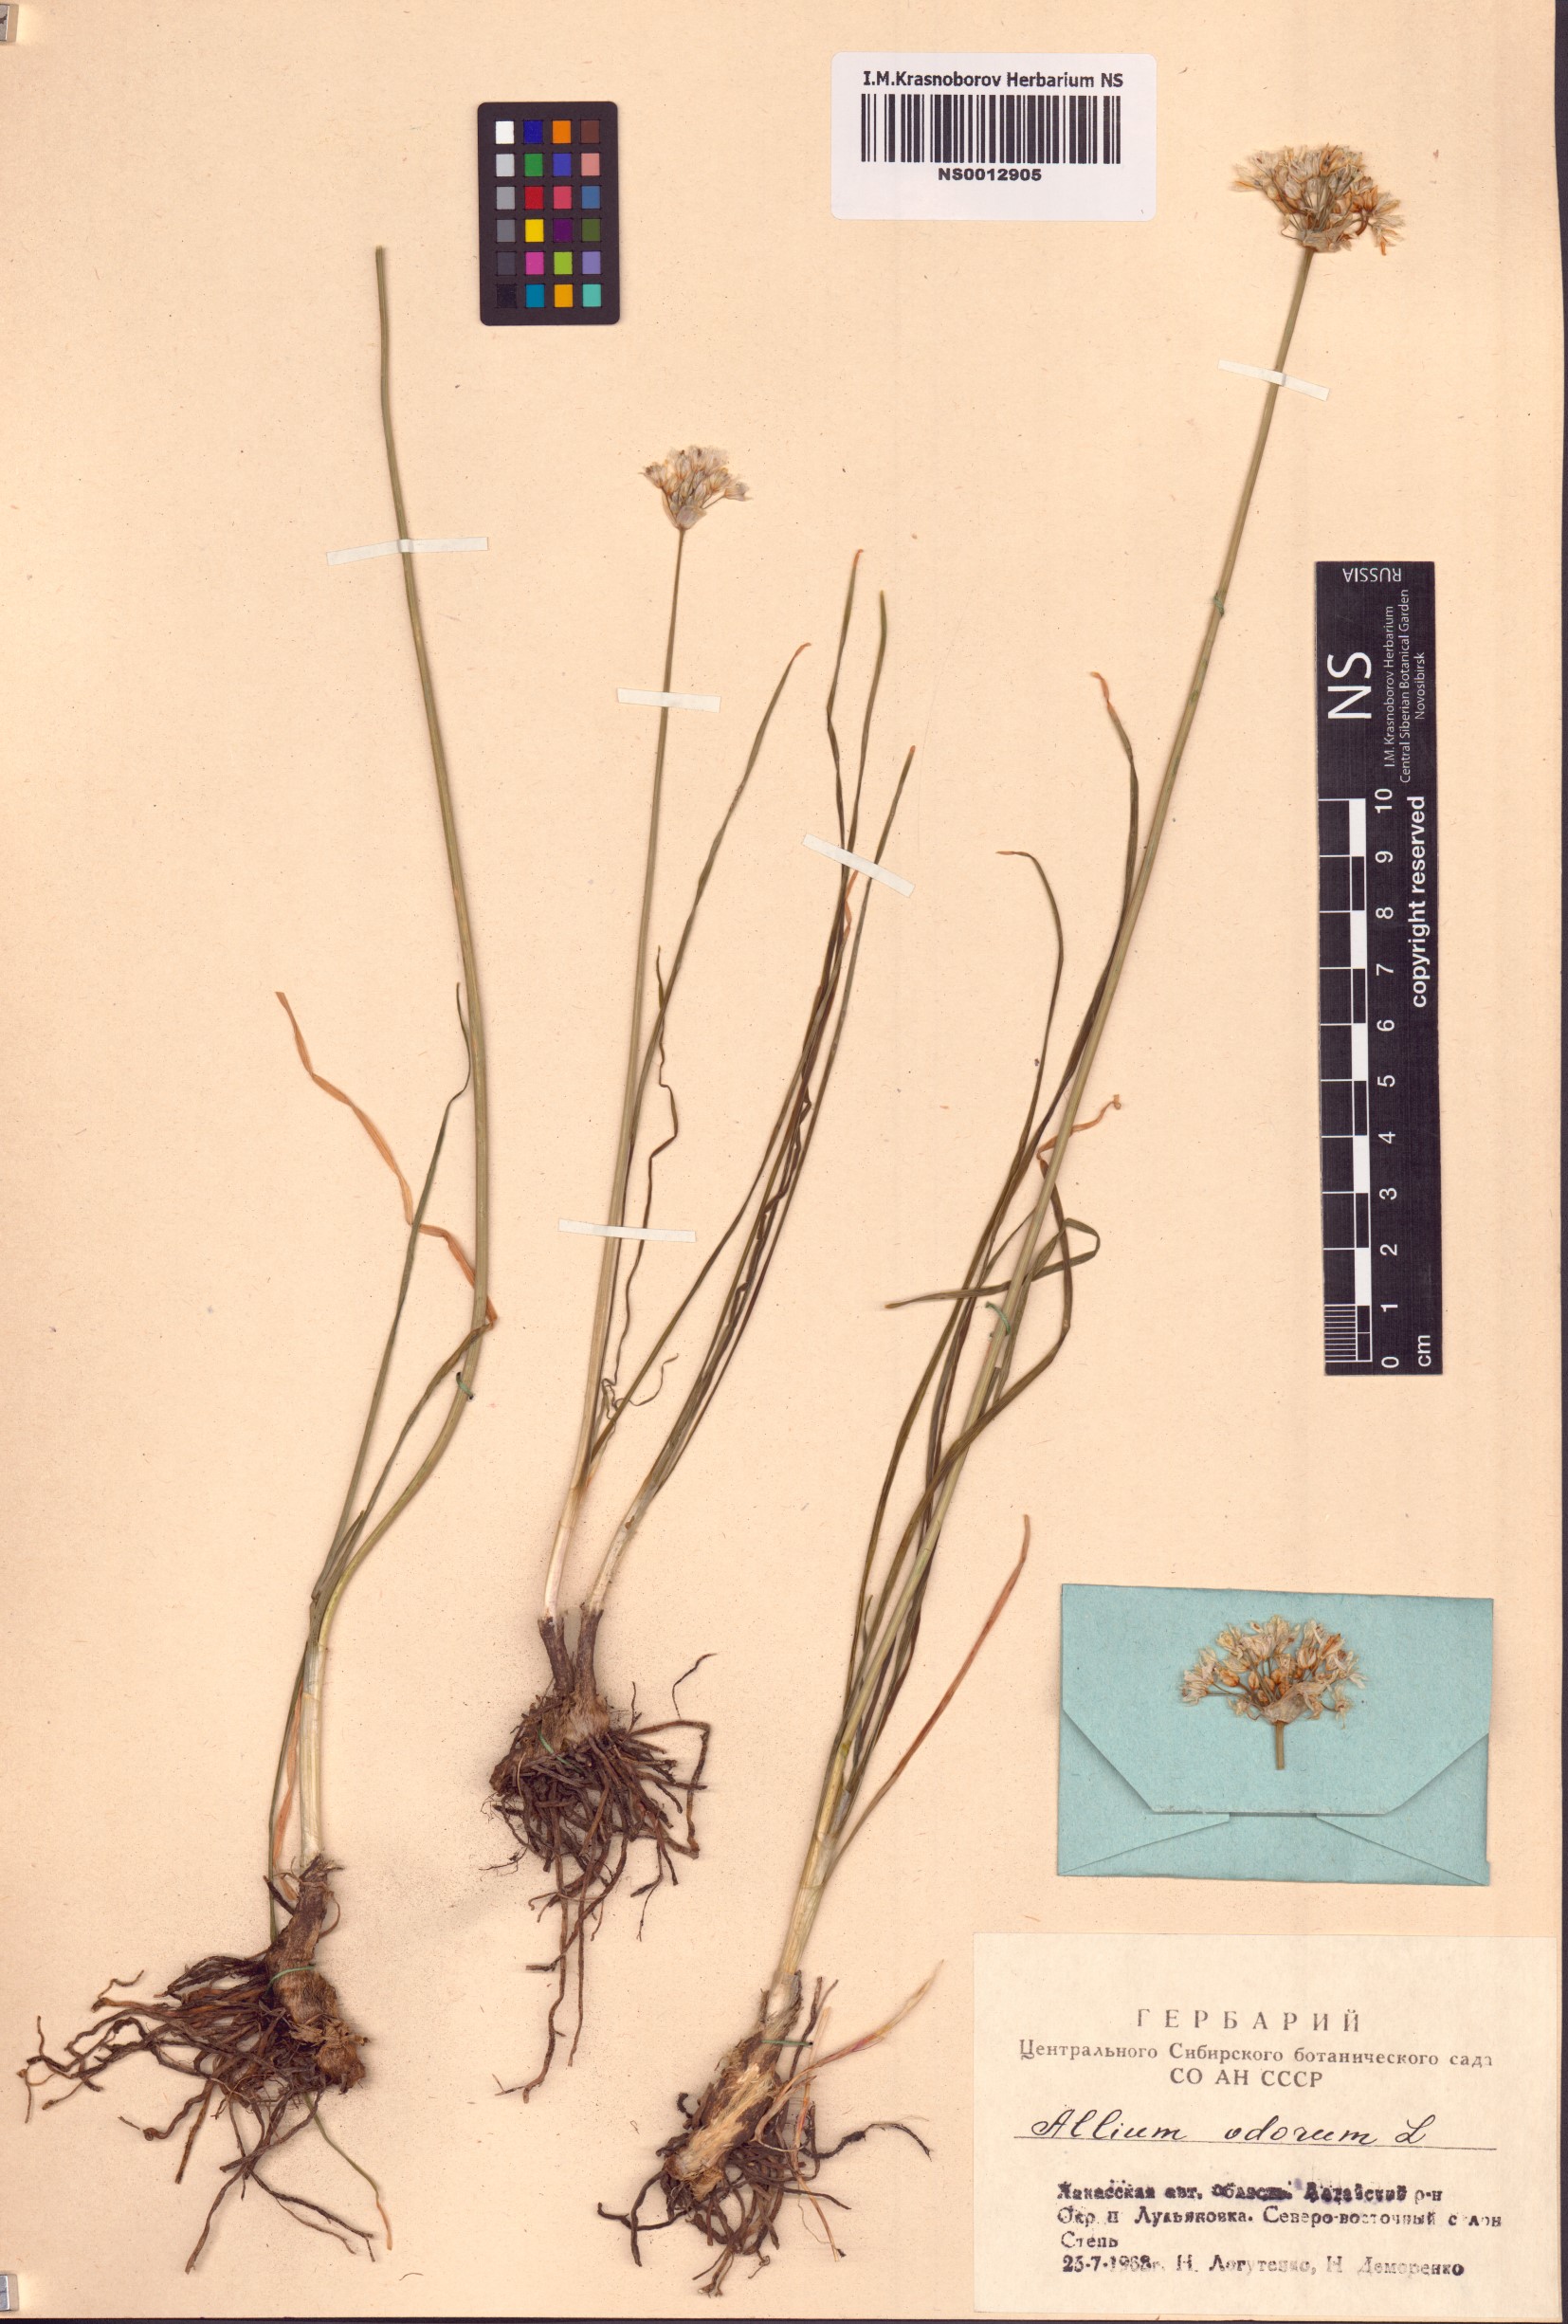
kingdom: Plantae
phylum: Tracheophyta
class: Liliopsida
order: Asparagales
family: Amaryllidaceae
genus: Allium
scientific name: Allium ramosum
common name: Fragrant garlic
